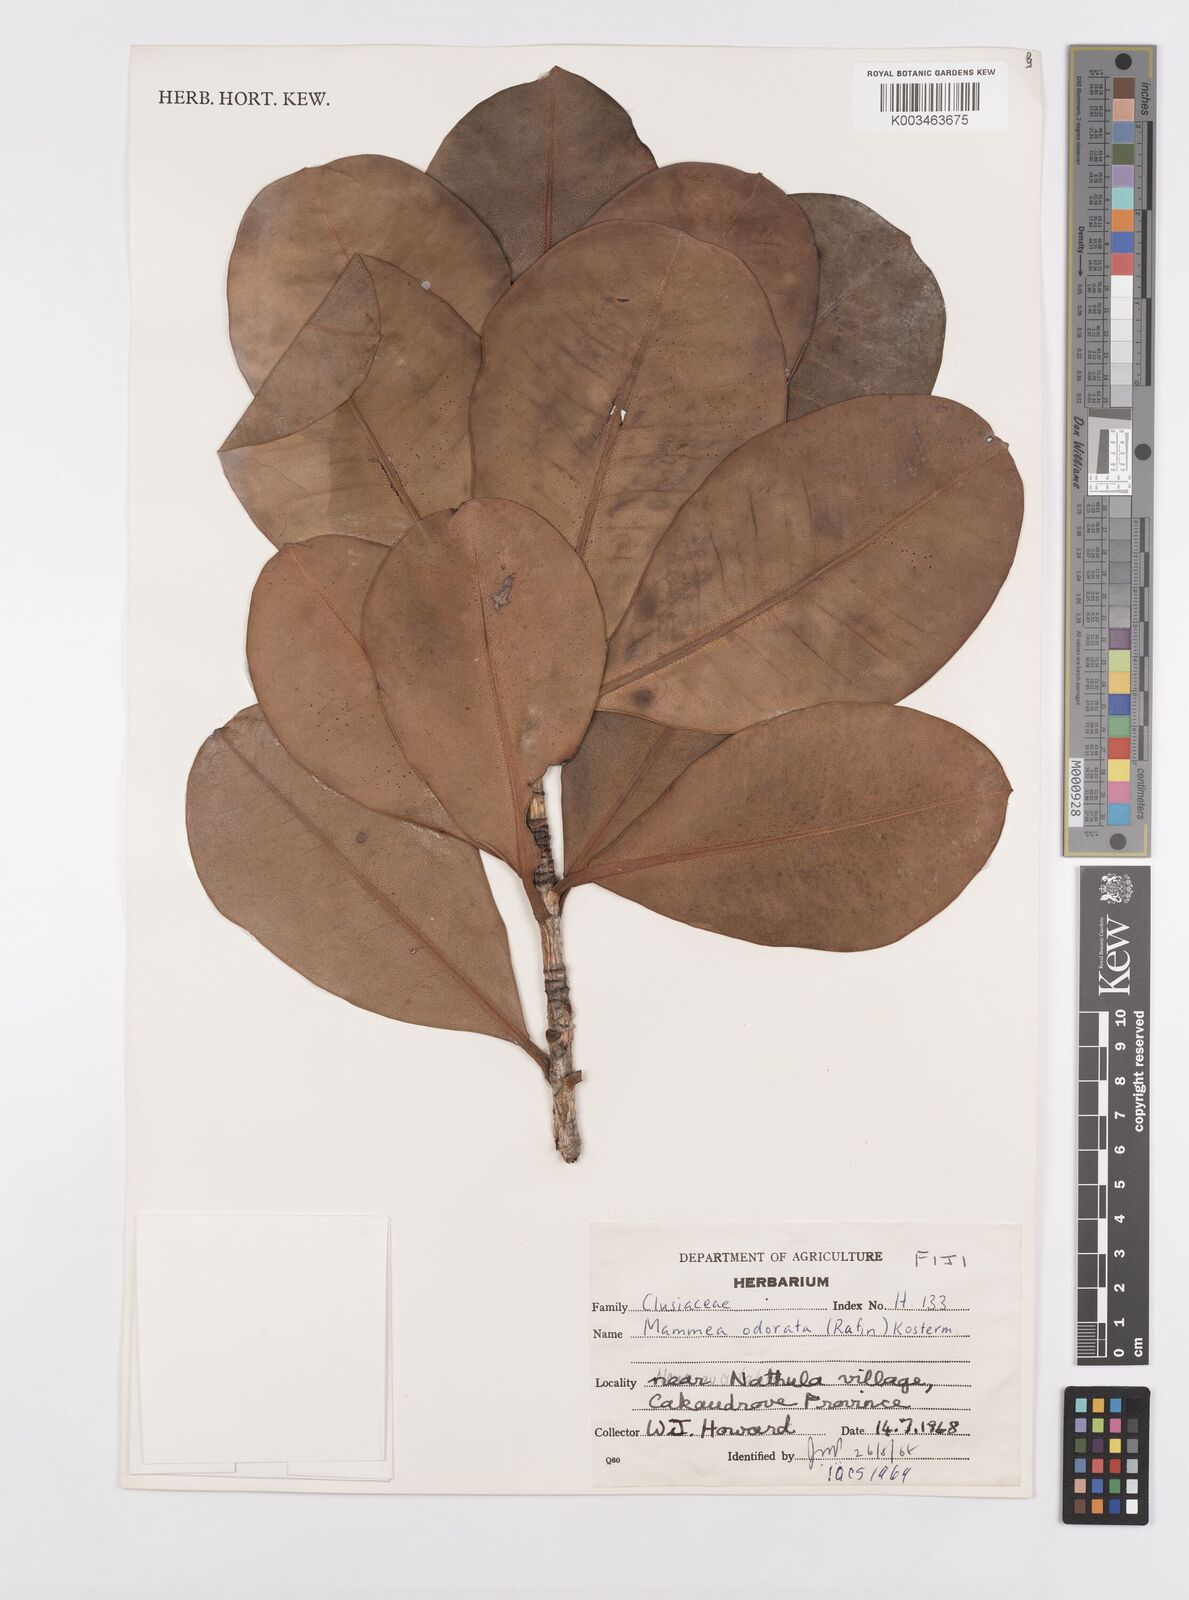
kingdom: Plantae
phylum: Tracheophyta
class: Magnoliopsida
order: Malpighiales
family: Calophyllaceae
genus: Mammea
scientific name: Mammea odorata
